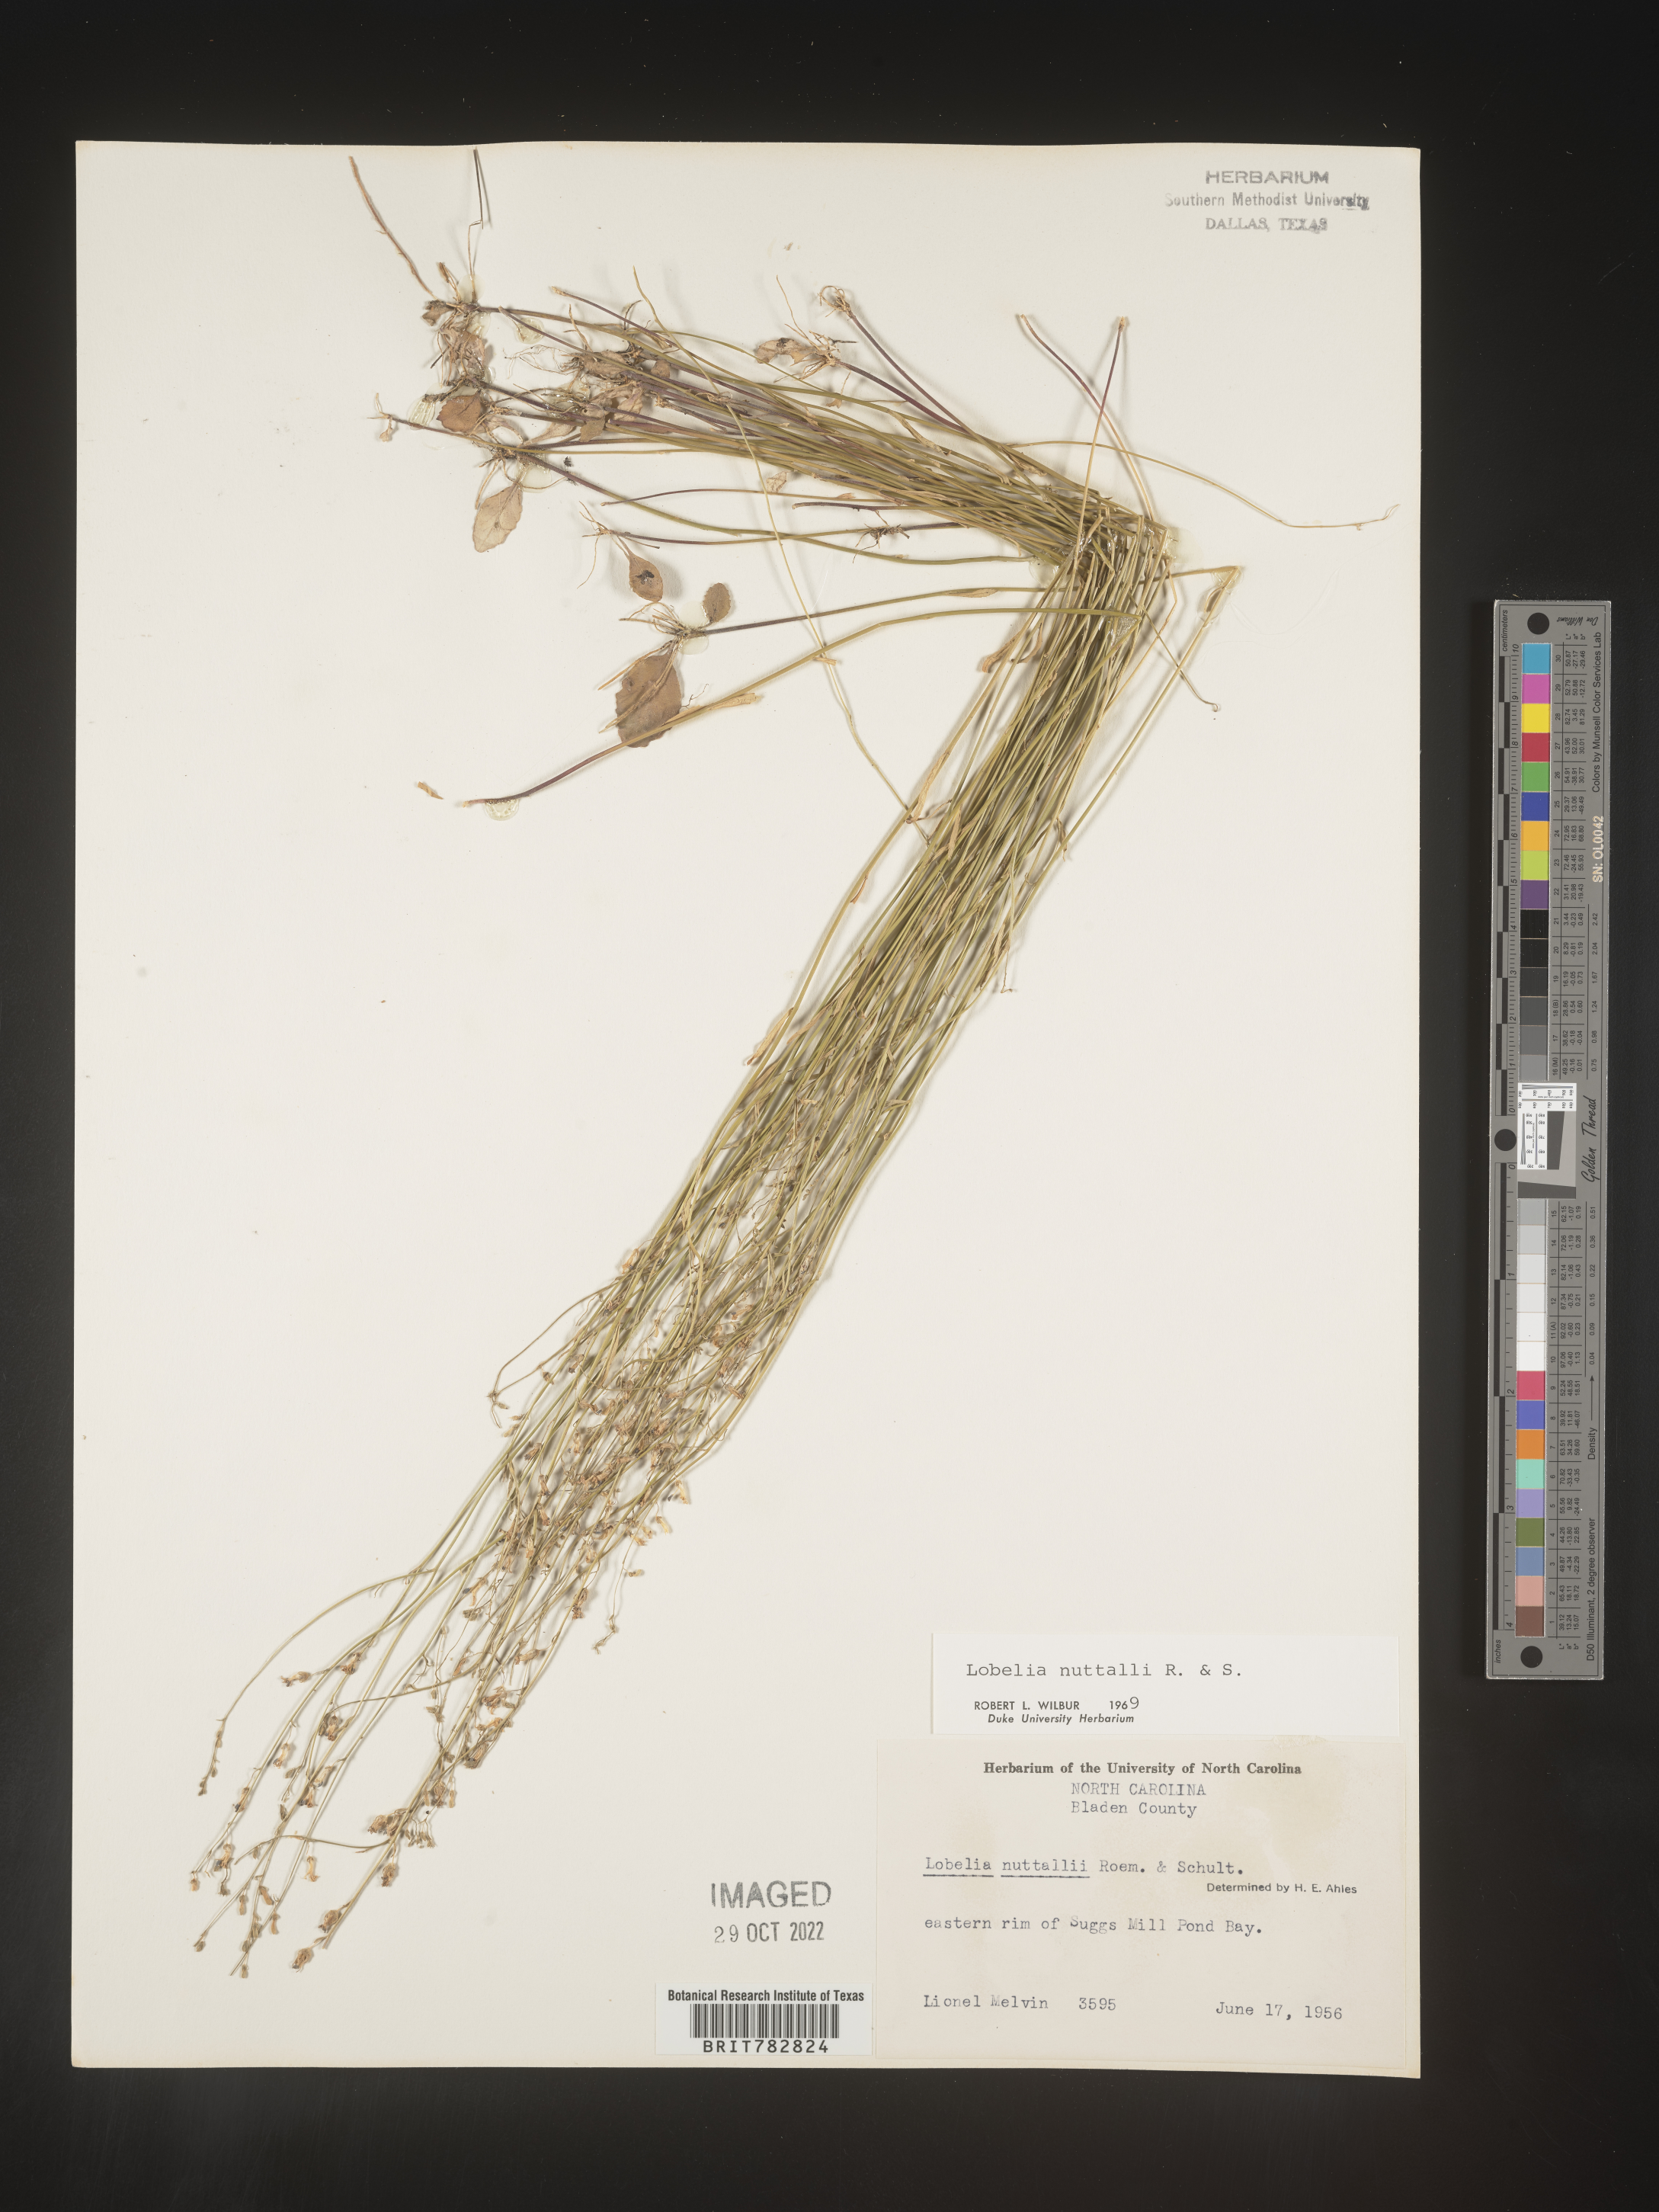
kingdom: Plantae
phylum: Tracheophyta
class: Magnoliopsida
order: Asterales
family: Campanulaceae
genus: Lobelia
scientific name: Lobelia nuttallii
